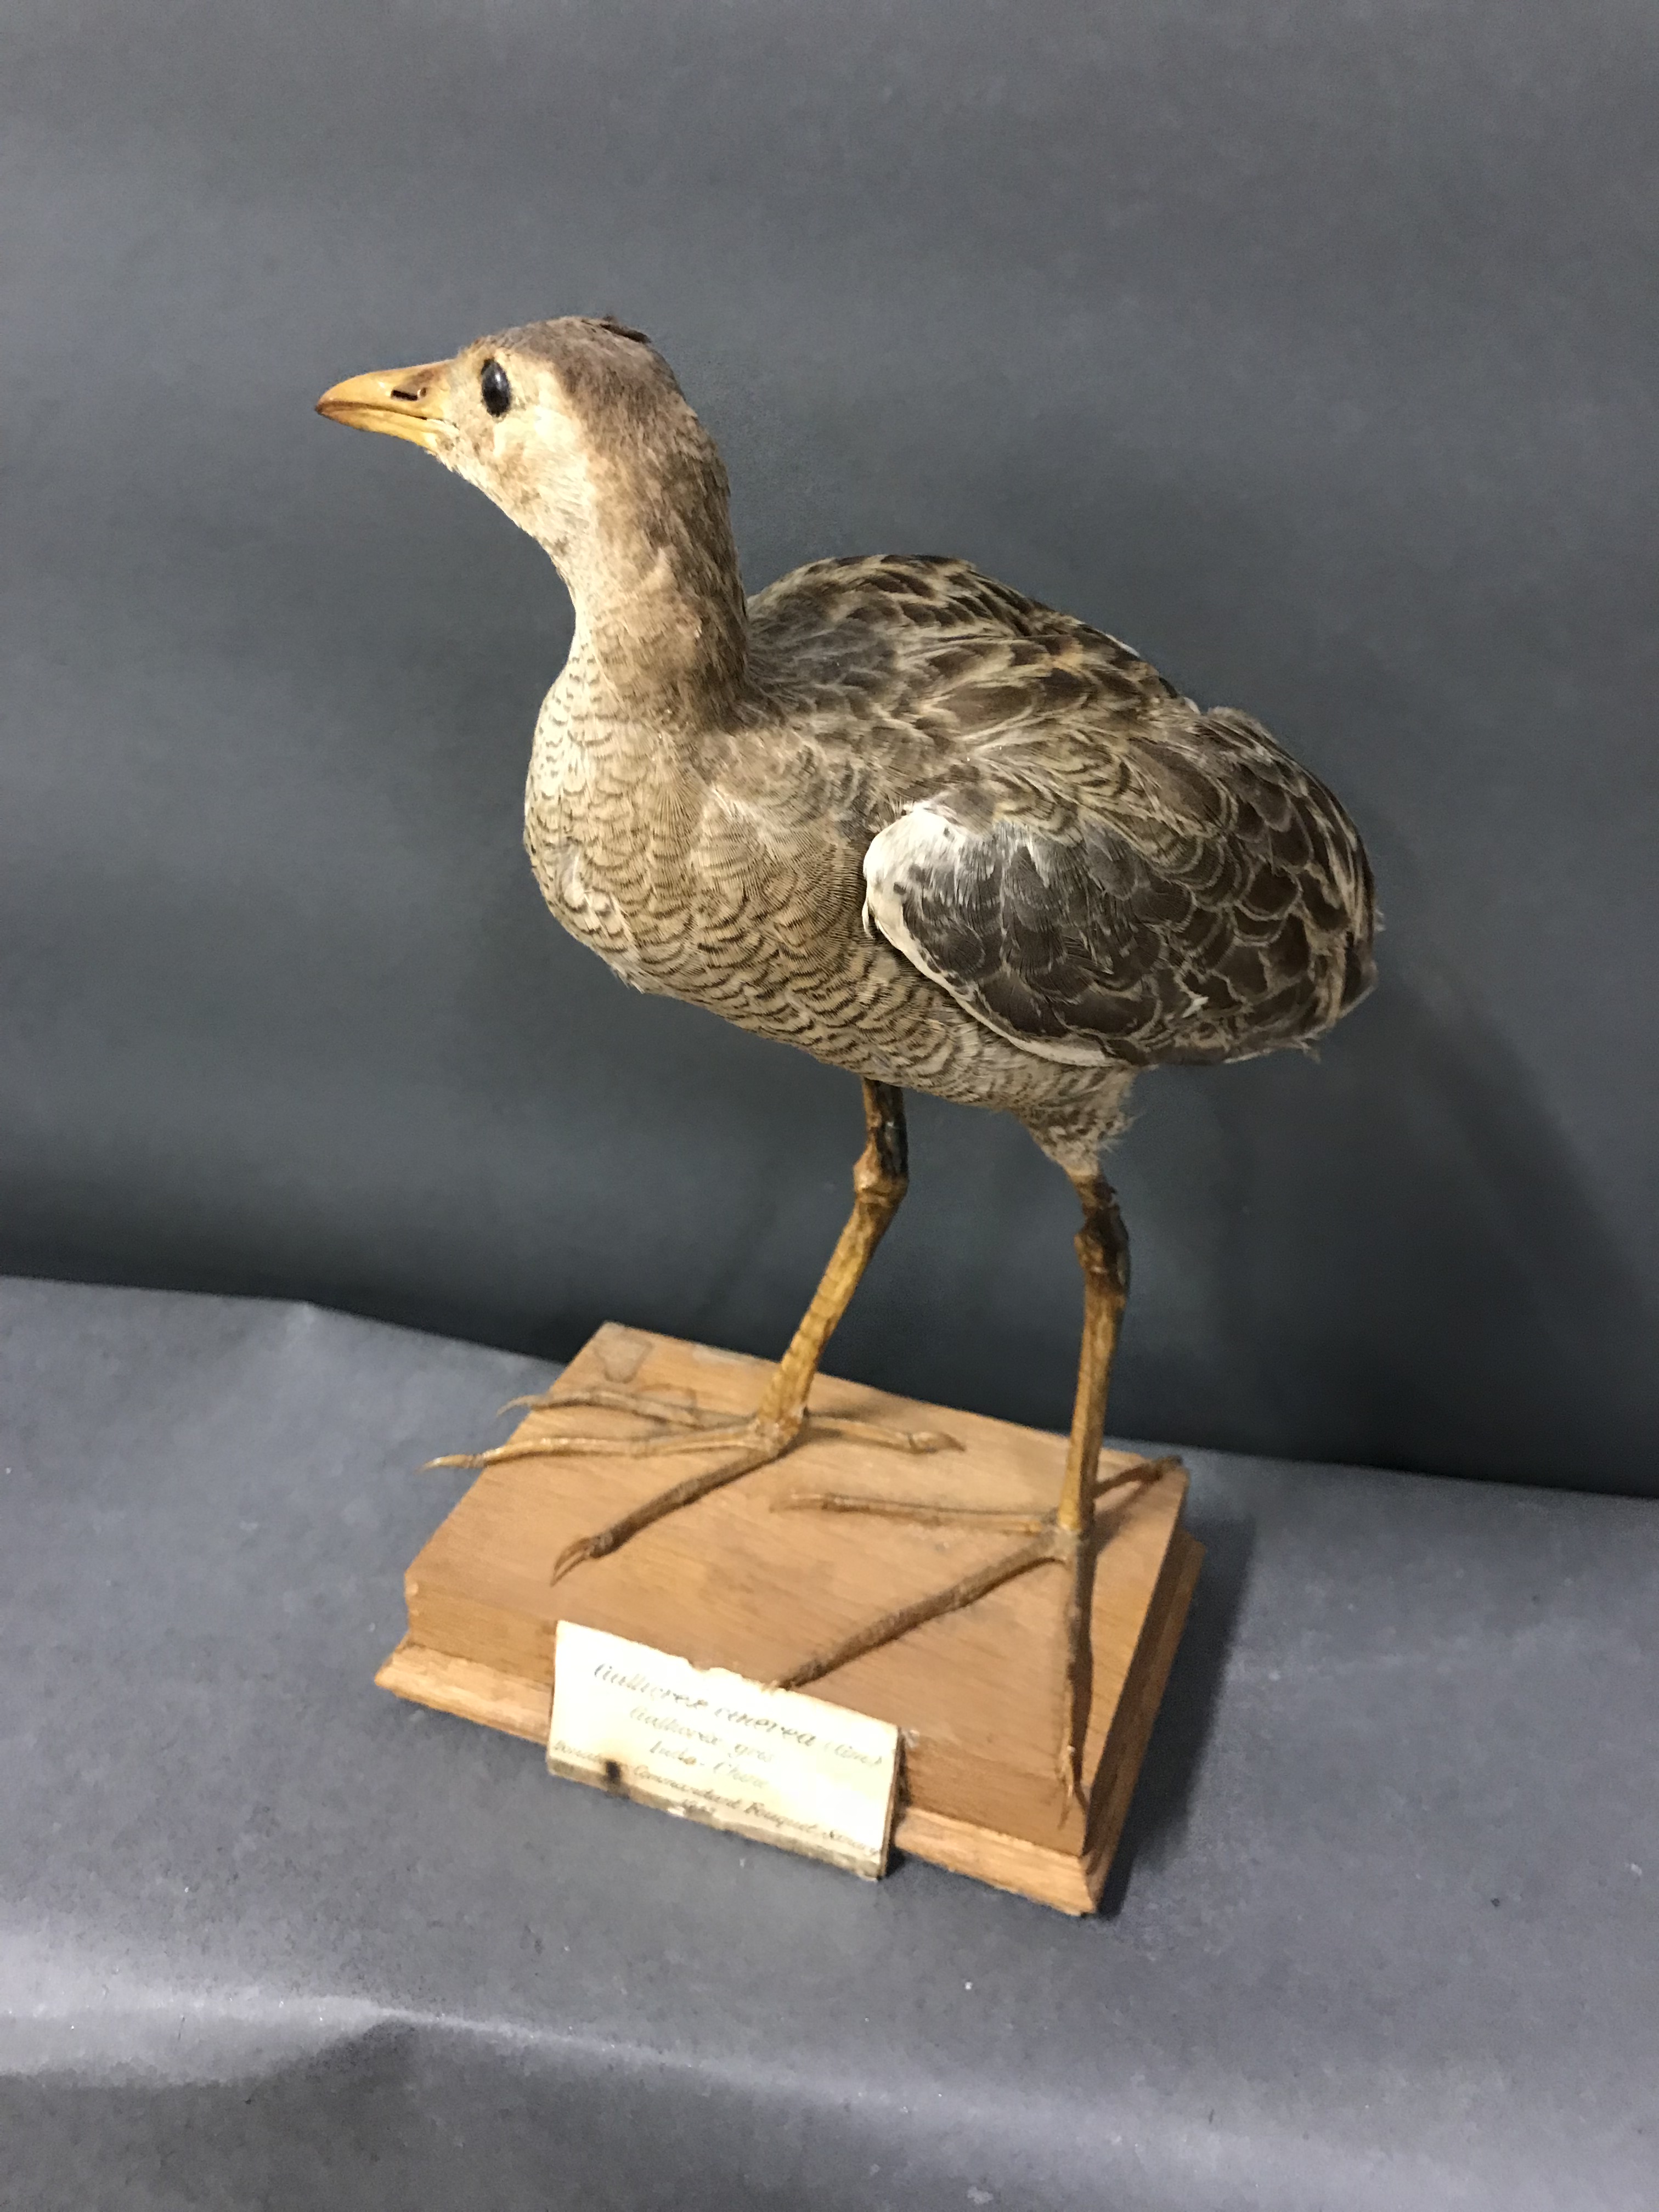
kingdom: Animalia
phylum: Chordata
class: Aves
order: Gruiformes
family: Rallidae
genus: Gallicrex
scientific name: Gallicrex cinerea
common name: Watercock
